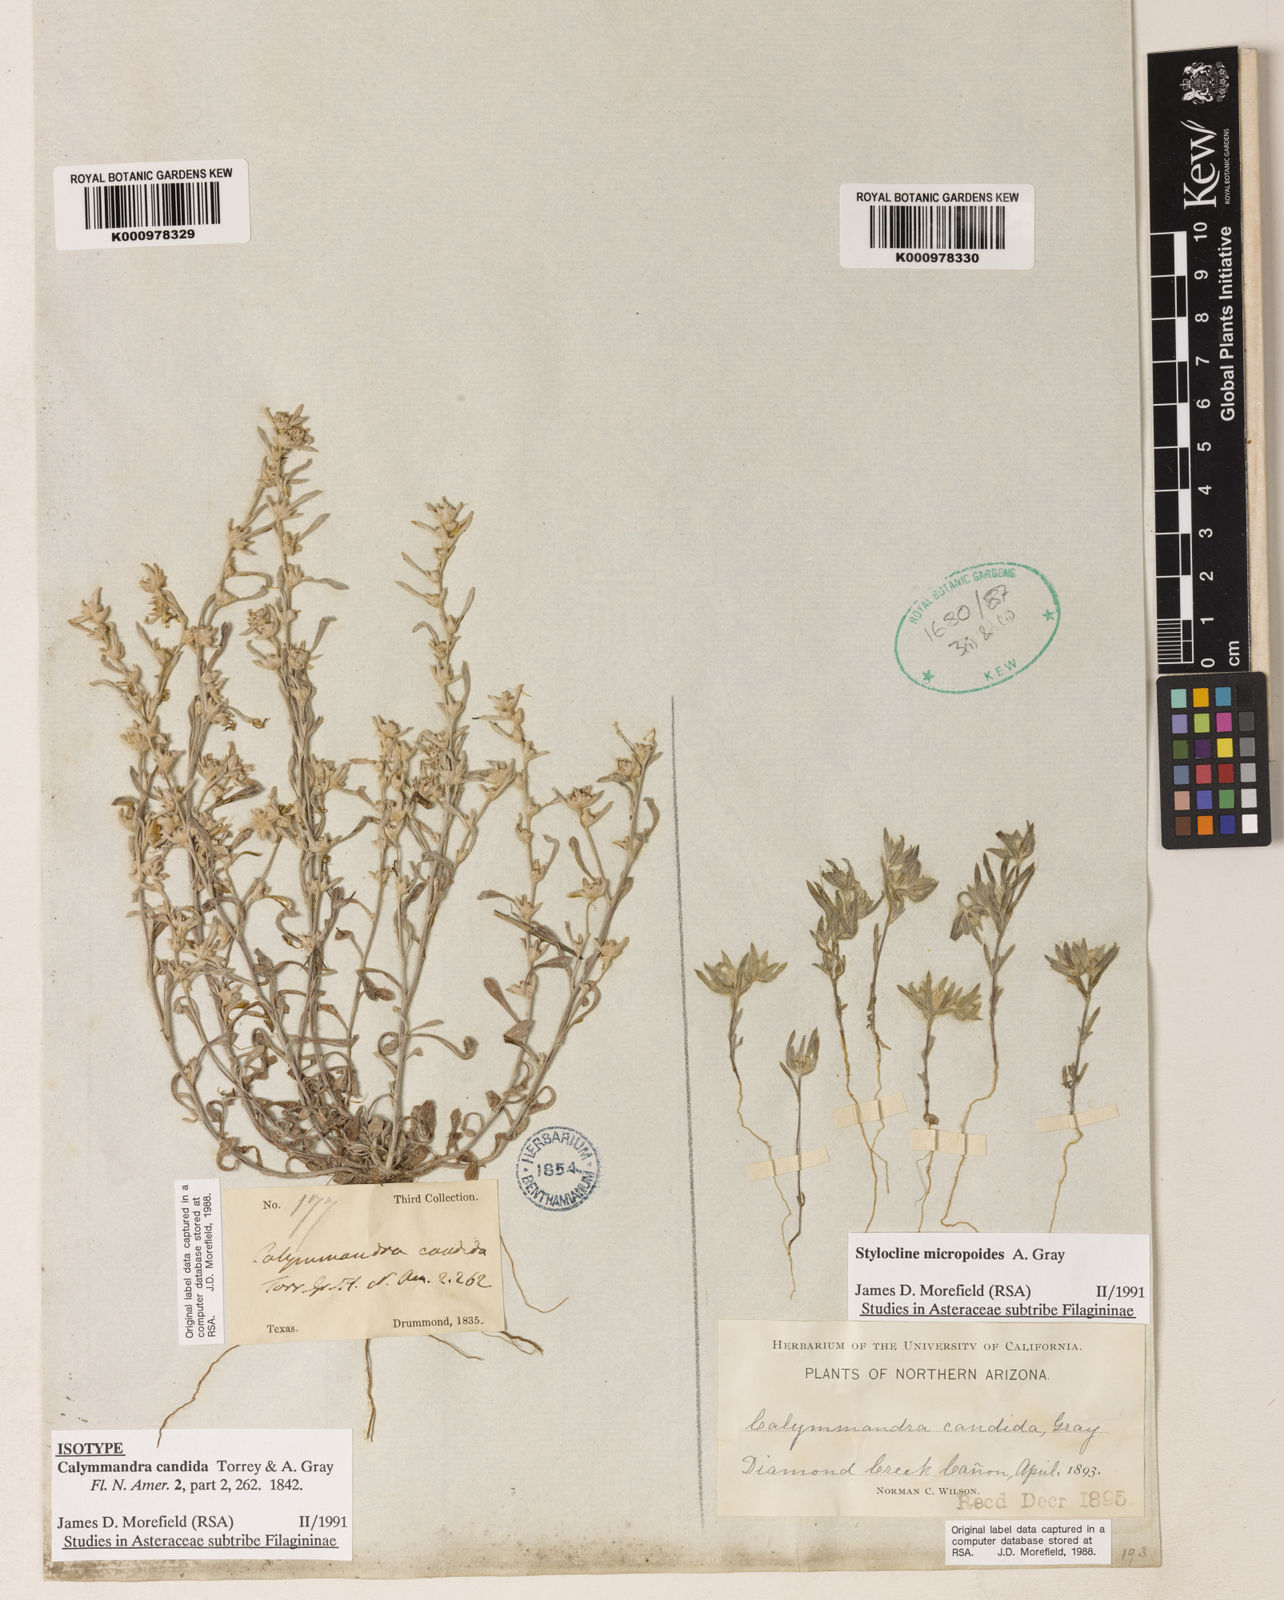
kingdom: Plantae
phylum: Tracheophyta
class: Magnoliopsida
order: Asterales
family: Asteraceae
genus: Diaperia
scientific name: Diaperia candida
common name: Silver rabbit-tobacco
